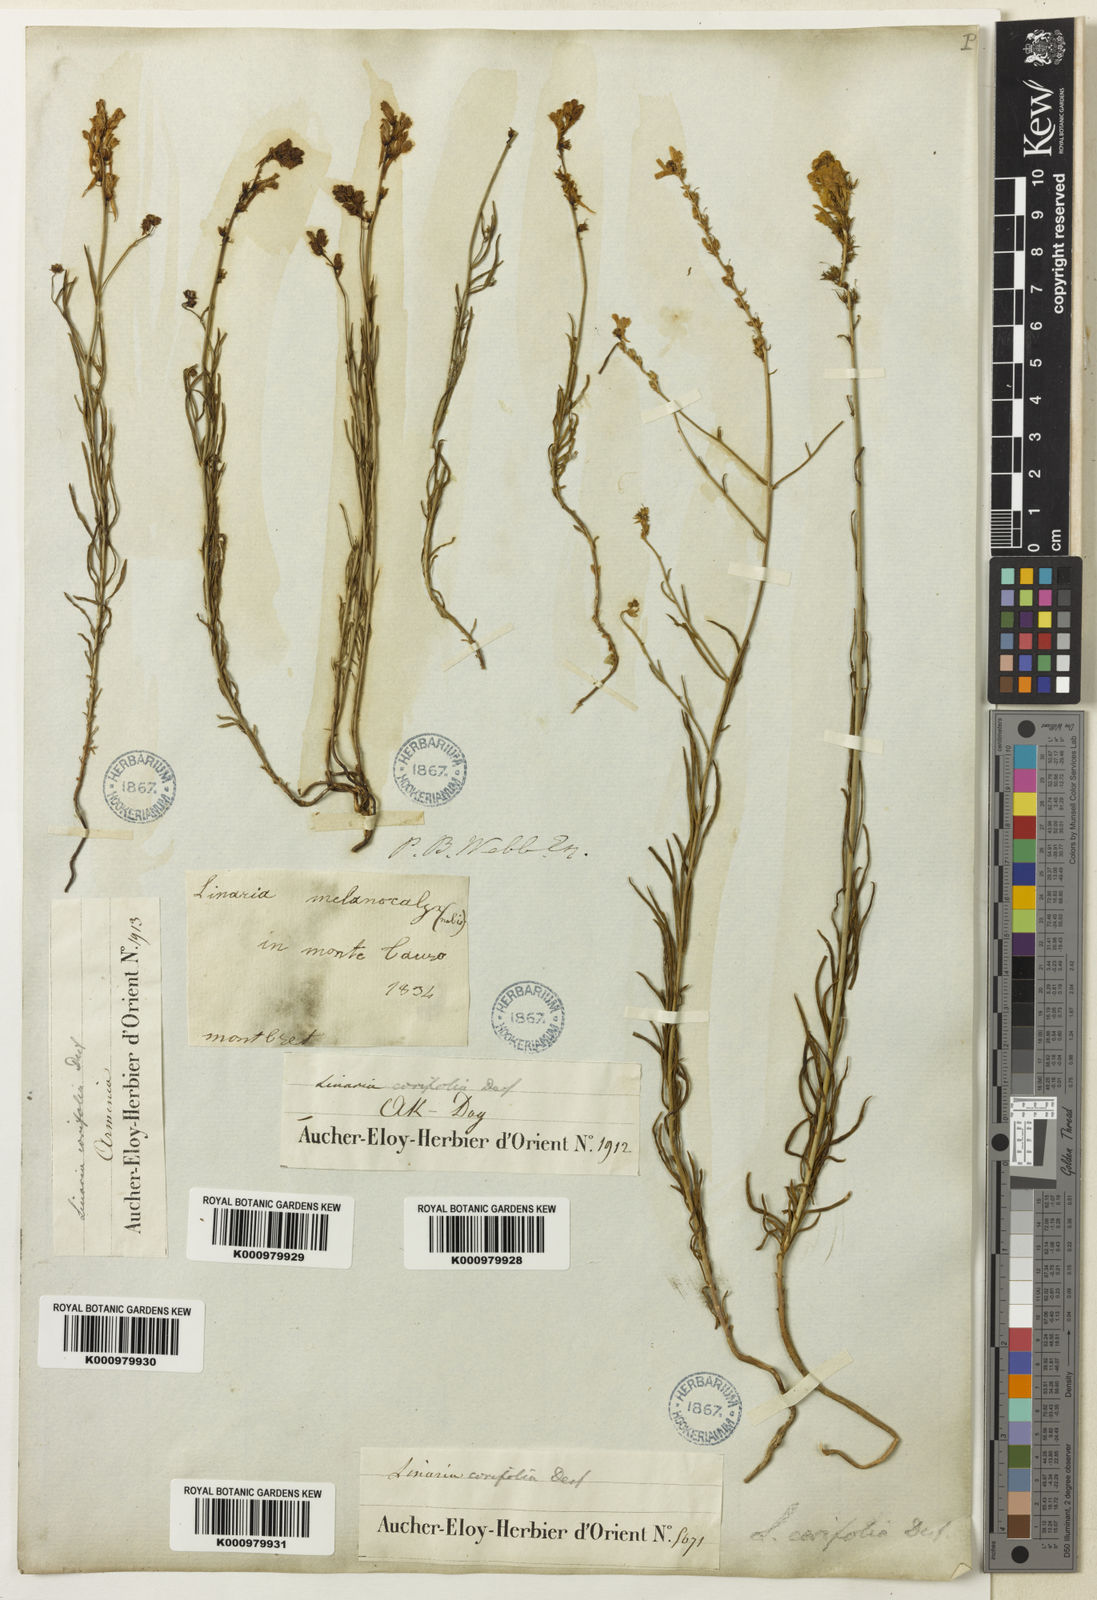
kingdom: Plantae
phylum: Tracheophyta
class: Magnoliopsida
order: Lamiales
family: Plantaginaceae
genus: Linaria
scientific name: Linaria corifolia
